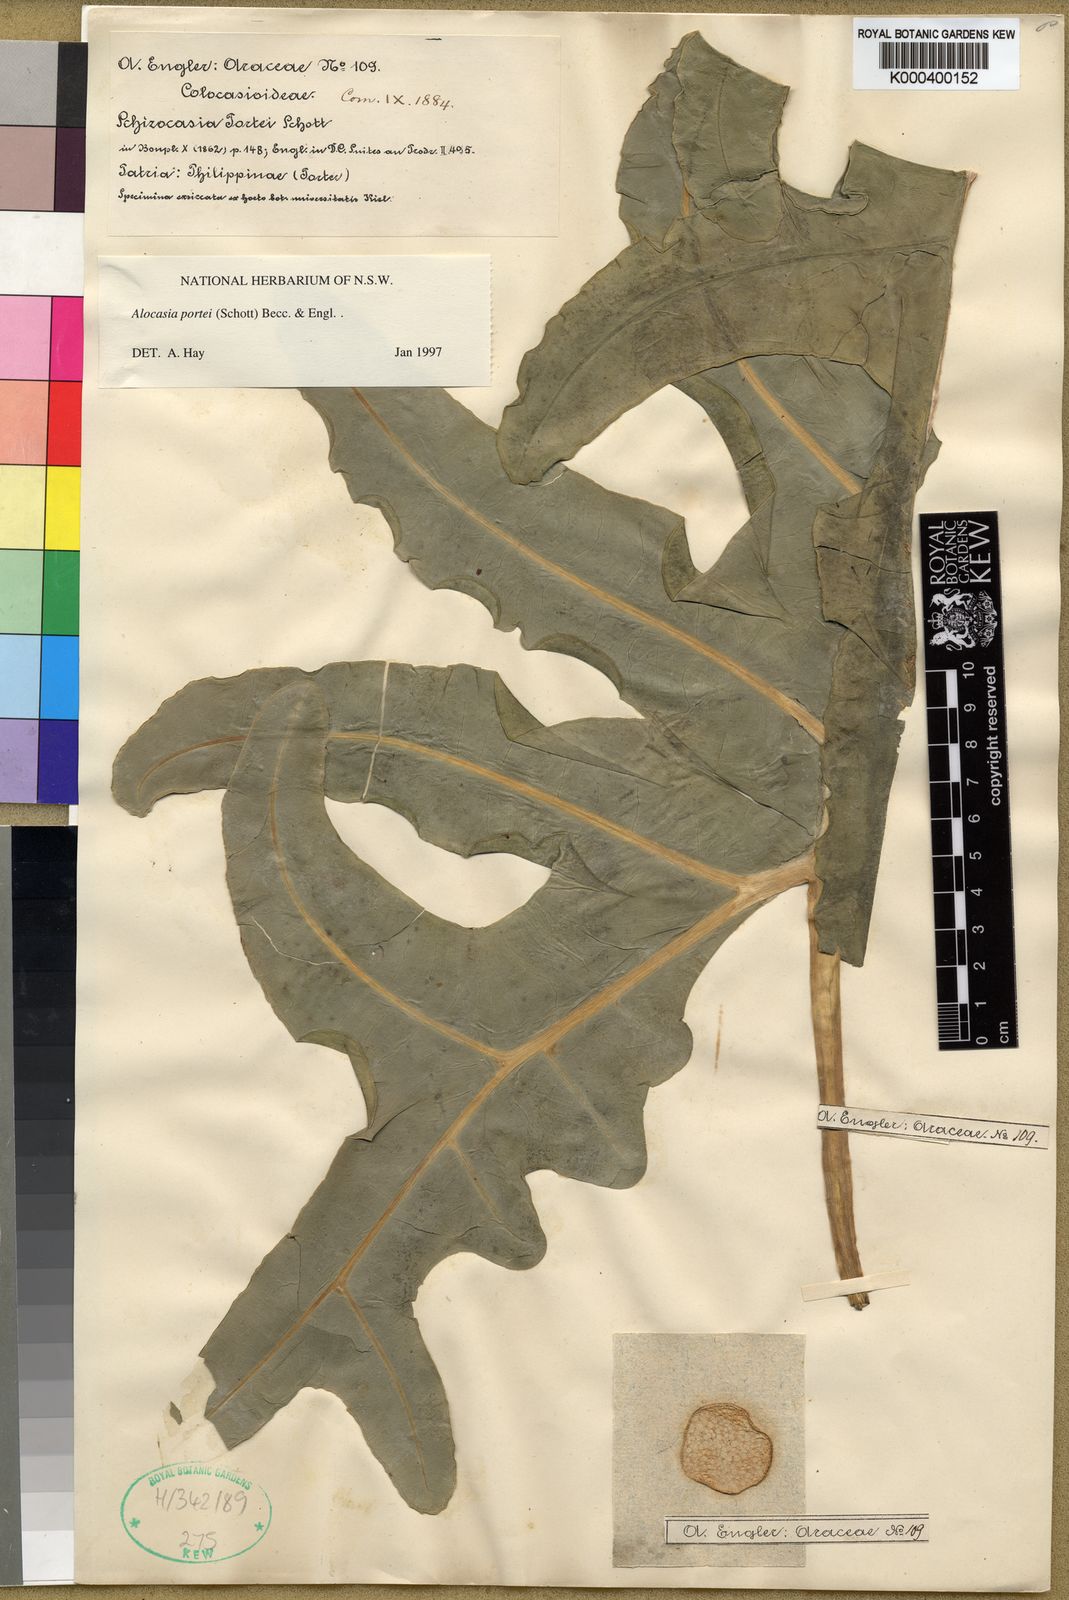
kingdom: Plantae
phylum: Tracheophyta
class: Liliopsida
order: Alismatales
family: Araceae
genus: Alocasia
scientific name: Alocasia portei
